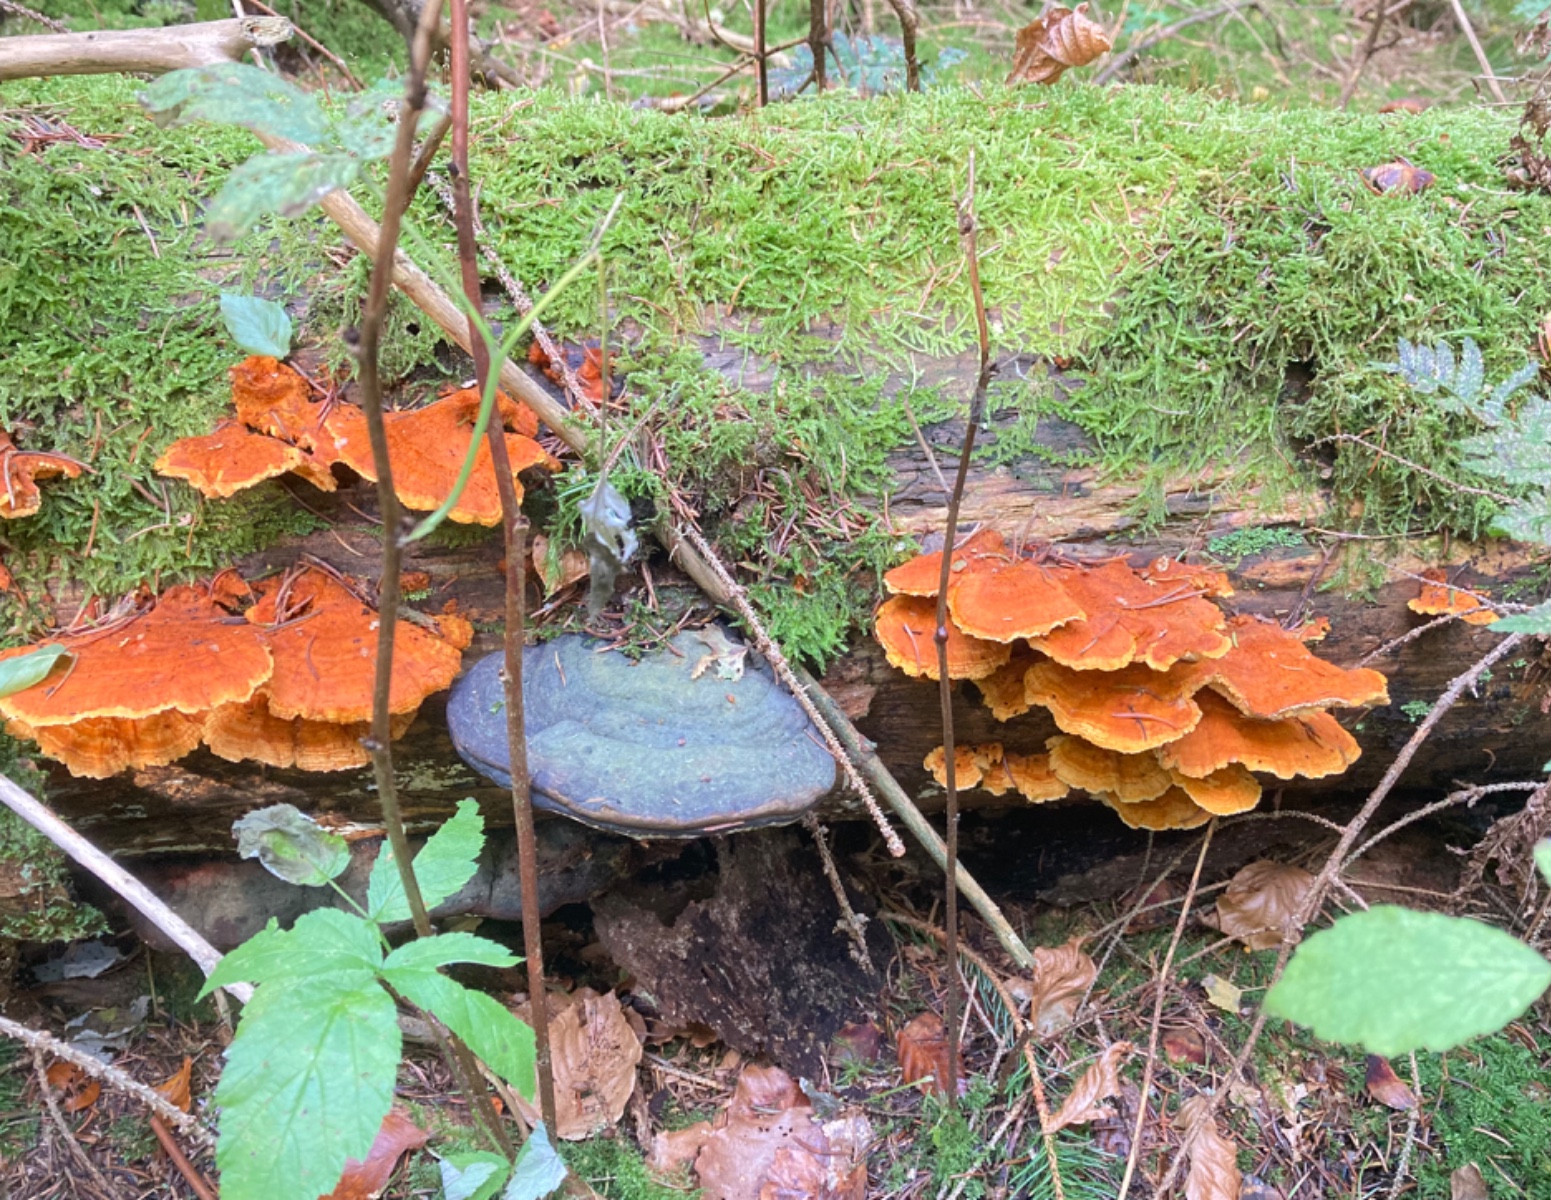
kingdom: Fungi
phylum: Basidiomycota
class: Agaricomycetes
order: Polyporales
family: Pycnoporellaceae
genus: Pycnoporellus
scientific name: Pycnoporellus fulgens
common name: flammeporesvamp
